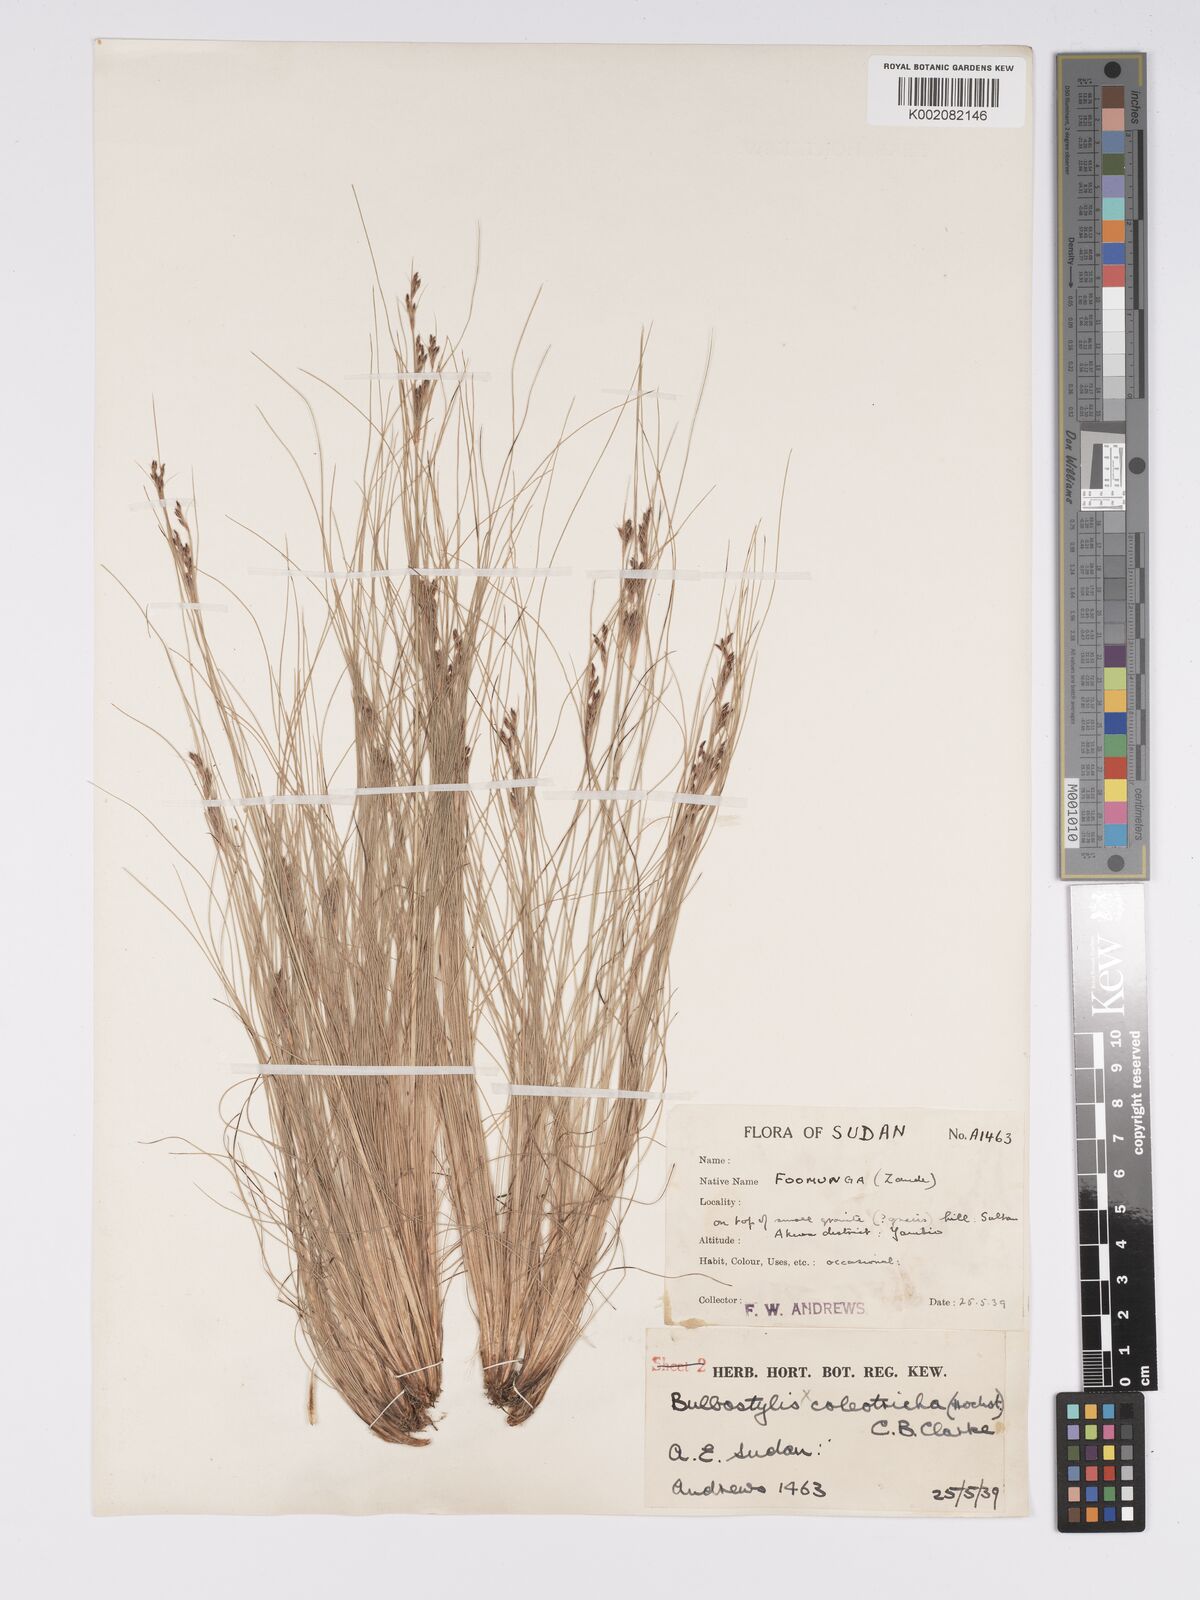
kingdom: Plantae
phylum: Tracheophyta
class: Liliopsida
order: Poales
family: Cyperaceae
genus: Bulbostylis
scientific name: Bulbostylis coleotricha
